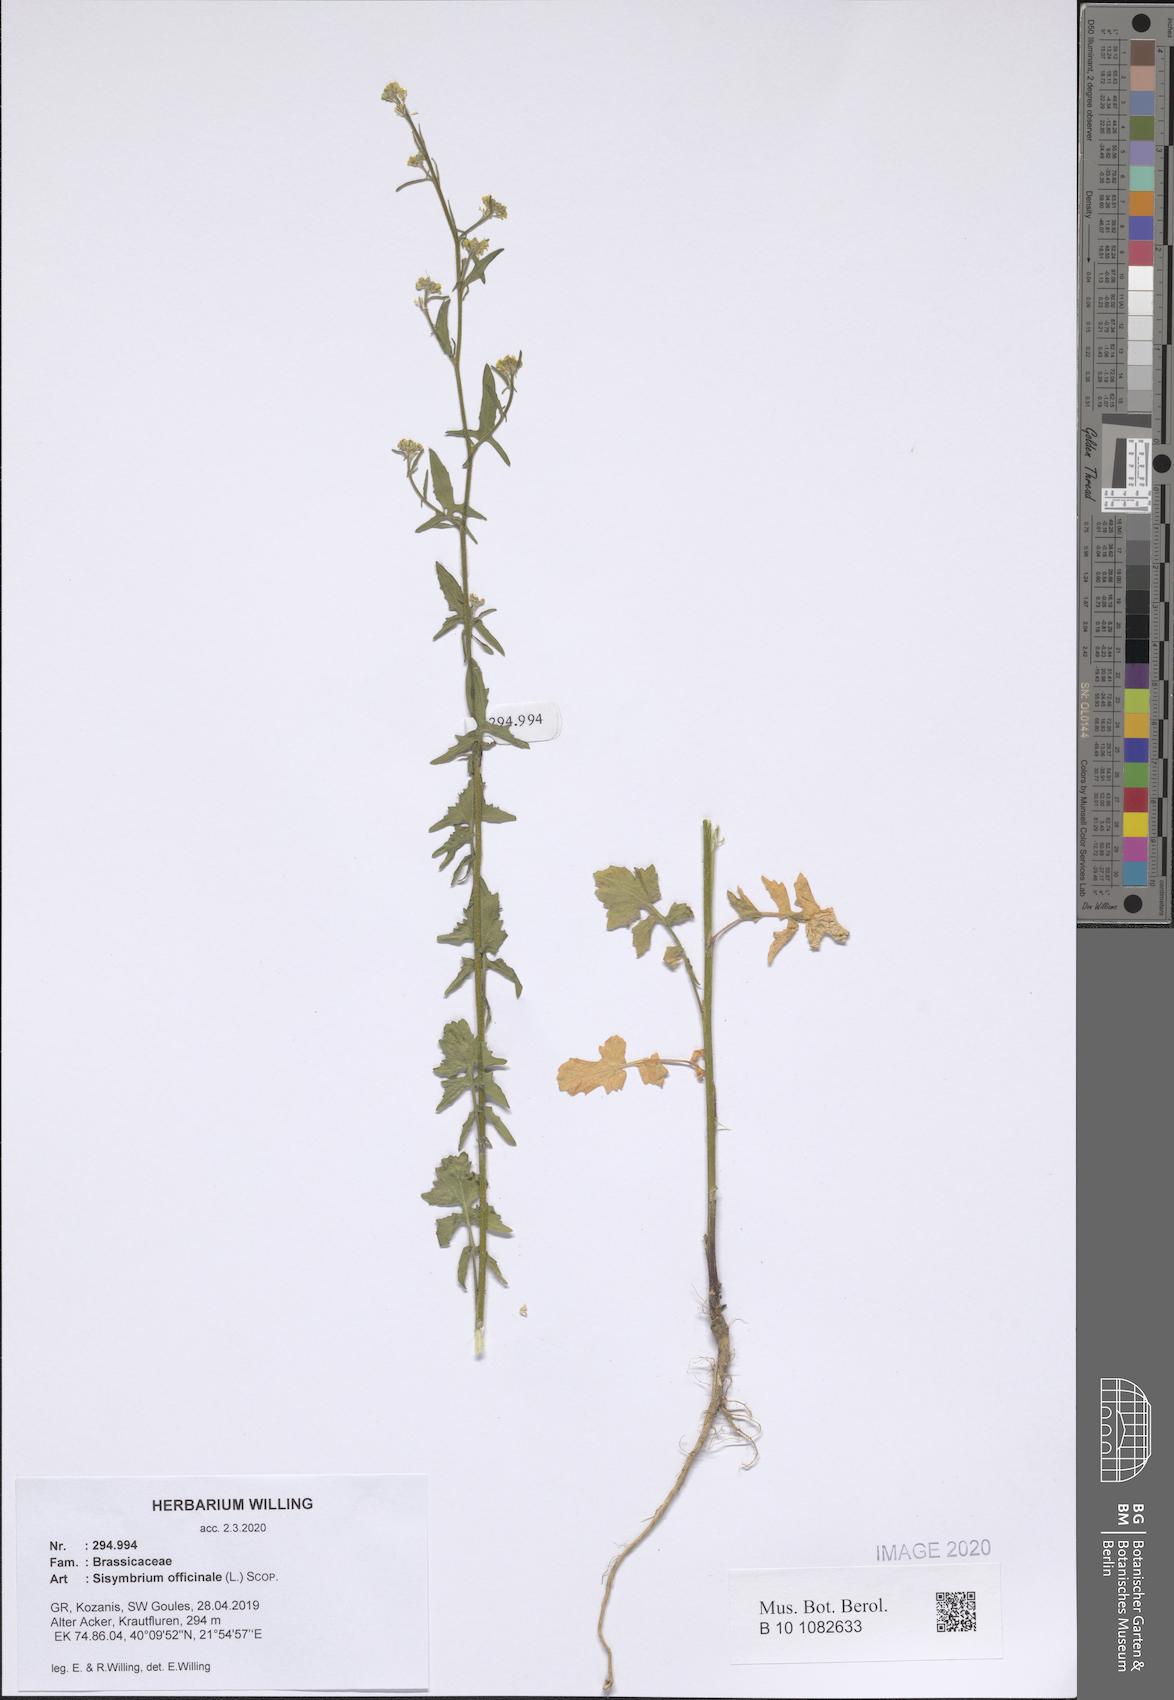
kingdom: Plantae
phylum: Tracheophyta
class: Magnoliopsida
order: Brassicales
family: Brassicaceae
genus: Sisymbrium
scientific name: Sisymbrium officinale
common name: Hedge mustard
